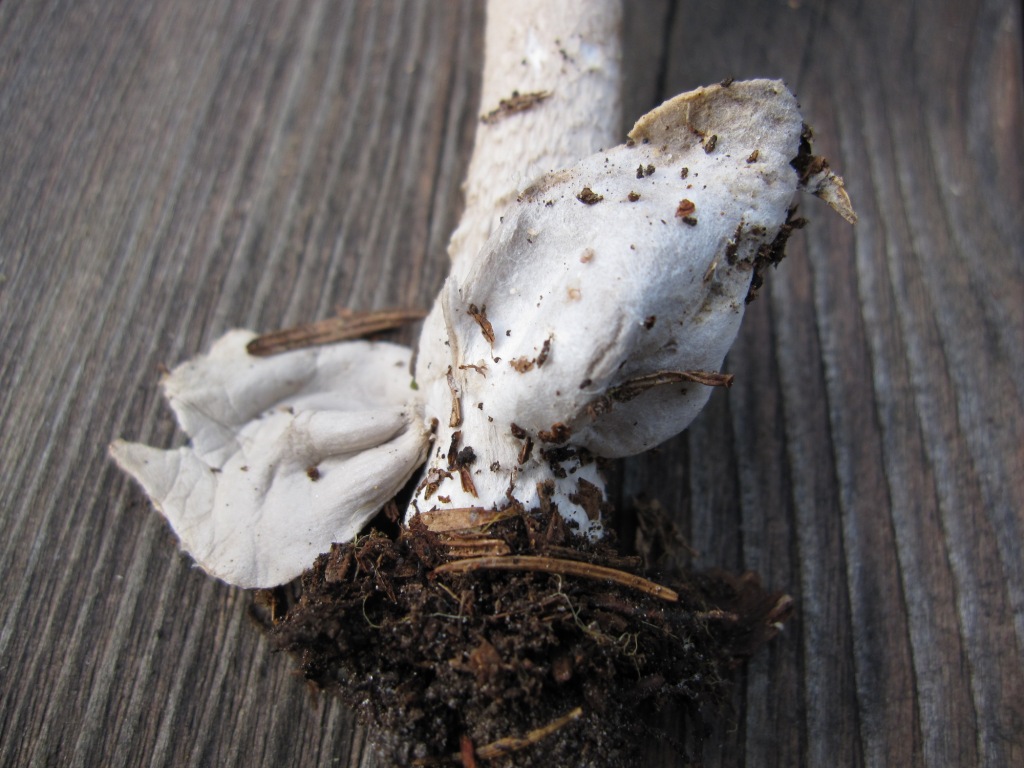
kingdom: Fungi
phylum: Basidiomycota
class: Agaricomycetes
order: Agaricales
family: Amanitaceae
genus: Amanita
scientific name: Amanita submembranacea
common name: gråspættet kam-fluesvamp
